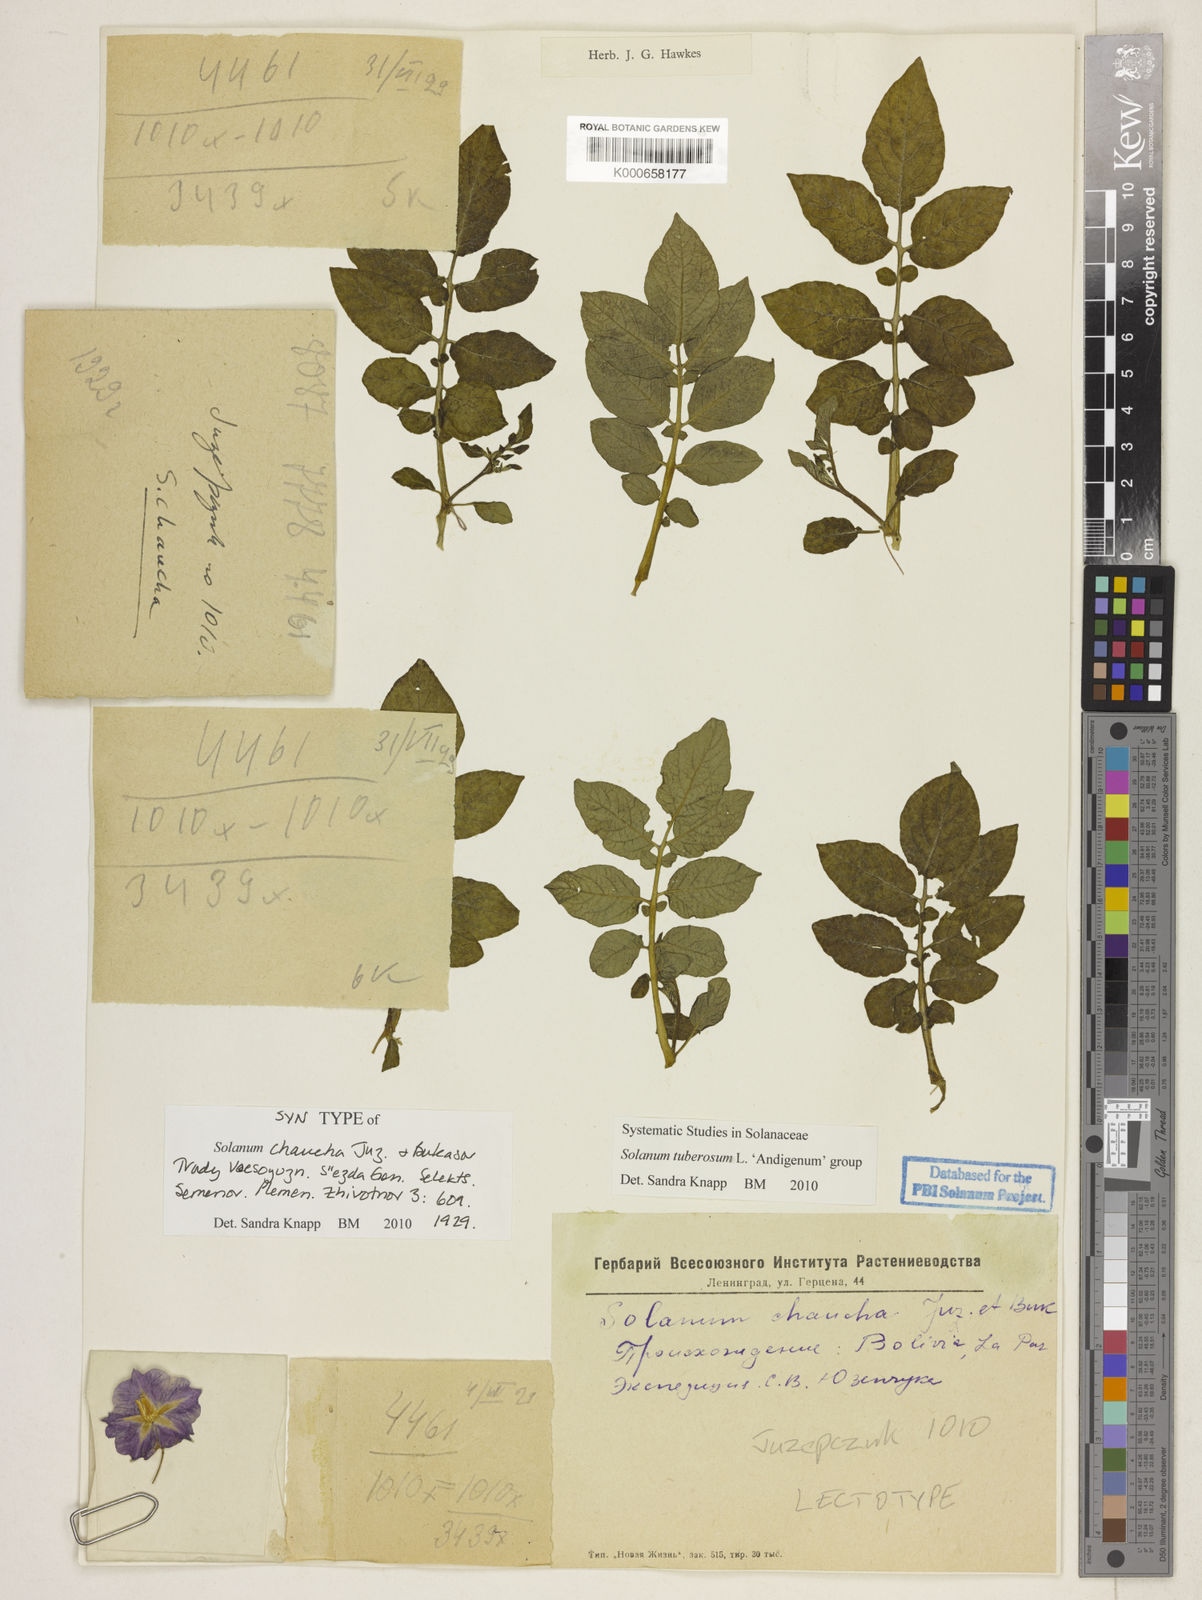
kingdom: Plantae
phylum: Tracheophyta
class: Magnoliopsida
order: Solanales
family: Solanaceae
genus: Solanum
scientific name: Solanum tuberosum
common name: Potato
